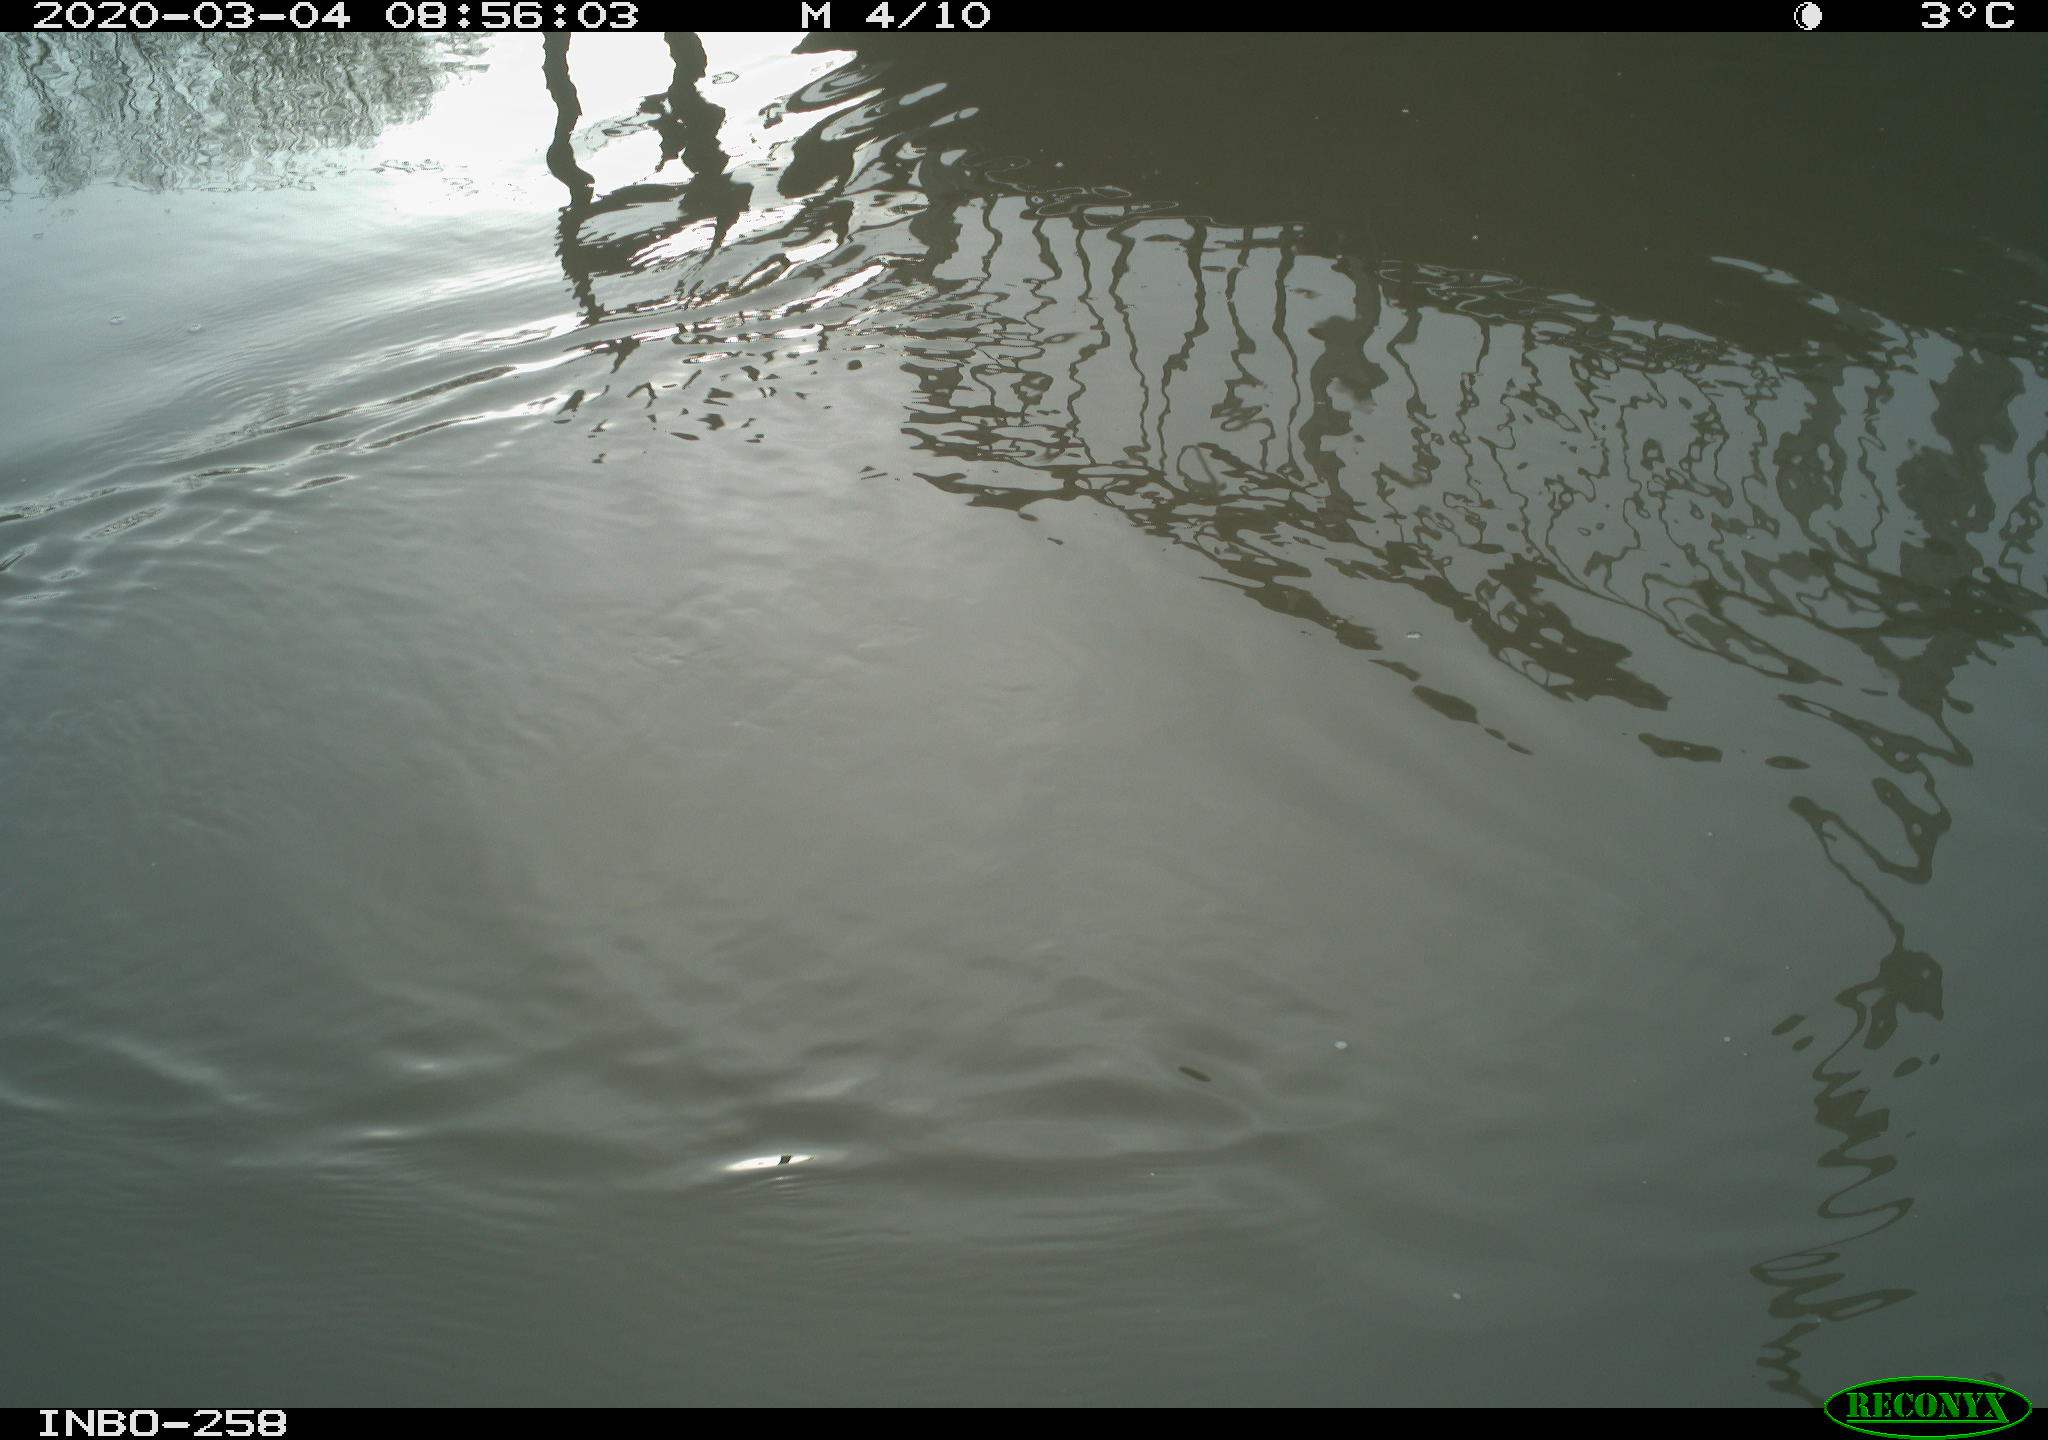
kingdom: Animalia
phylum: Chordata
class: Aves
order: Gruiformes
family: Rallidae
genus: Gallinula
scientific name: Gallinula chloropus
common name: Common moorhen
